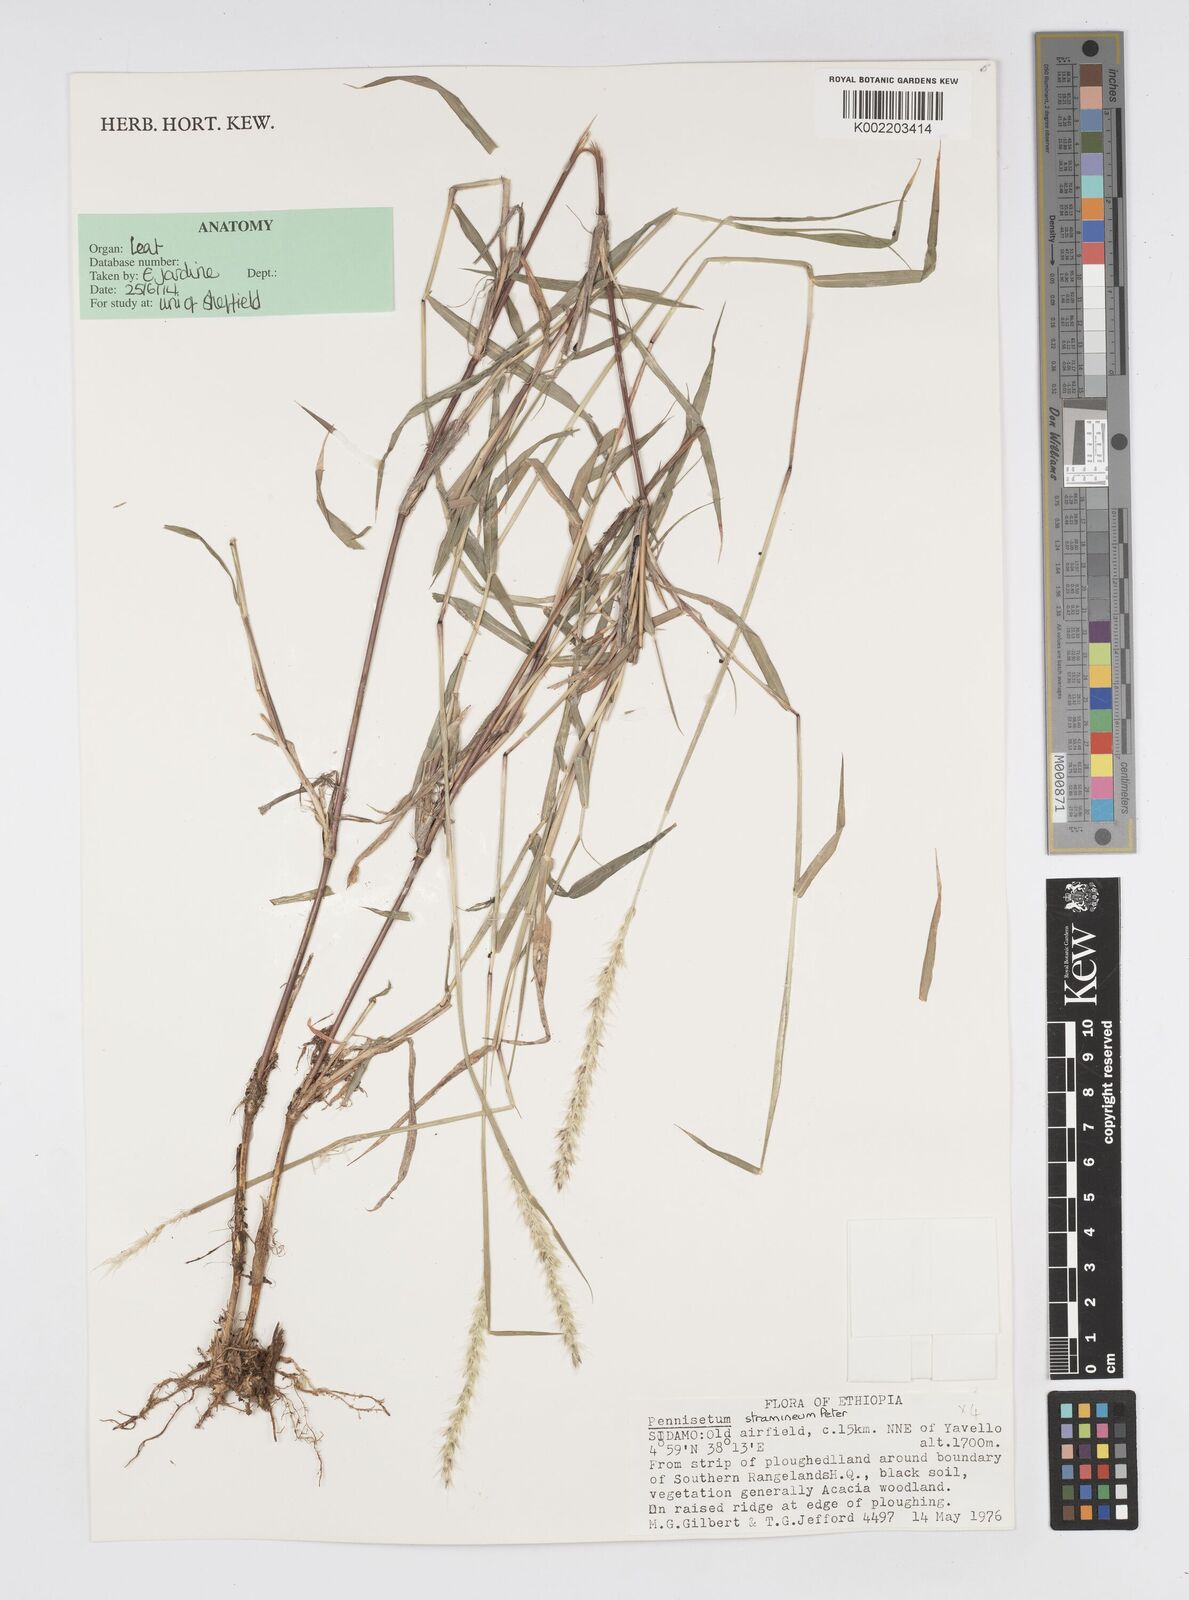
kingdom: Plantae
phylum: Tracheophyta
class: Liliopsida
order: Poales
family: Poaceae
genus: Cenchrus
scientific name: Cenchrus stramineus
